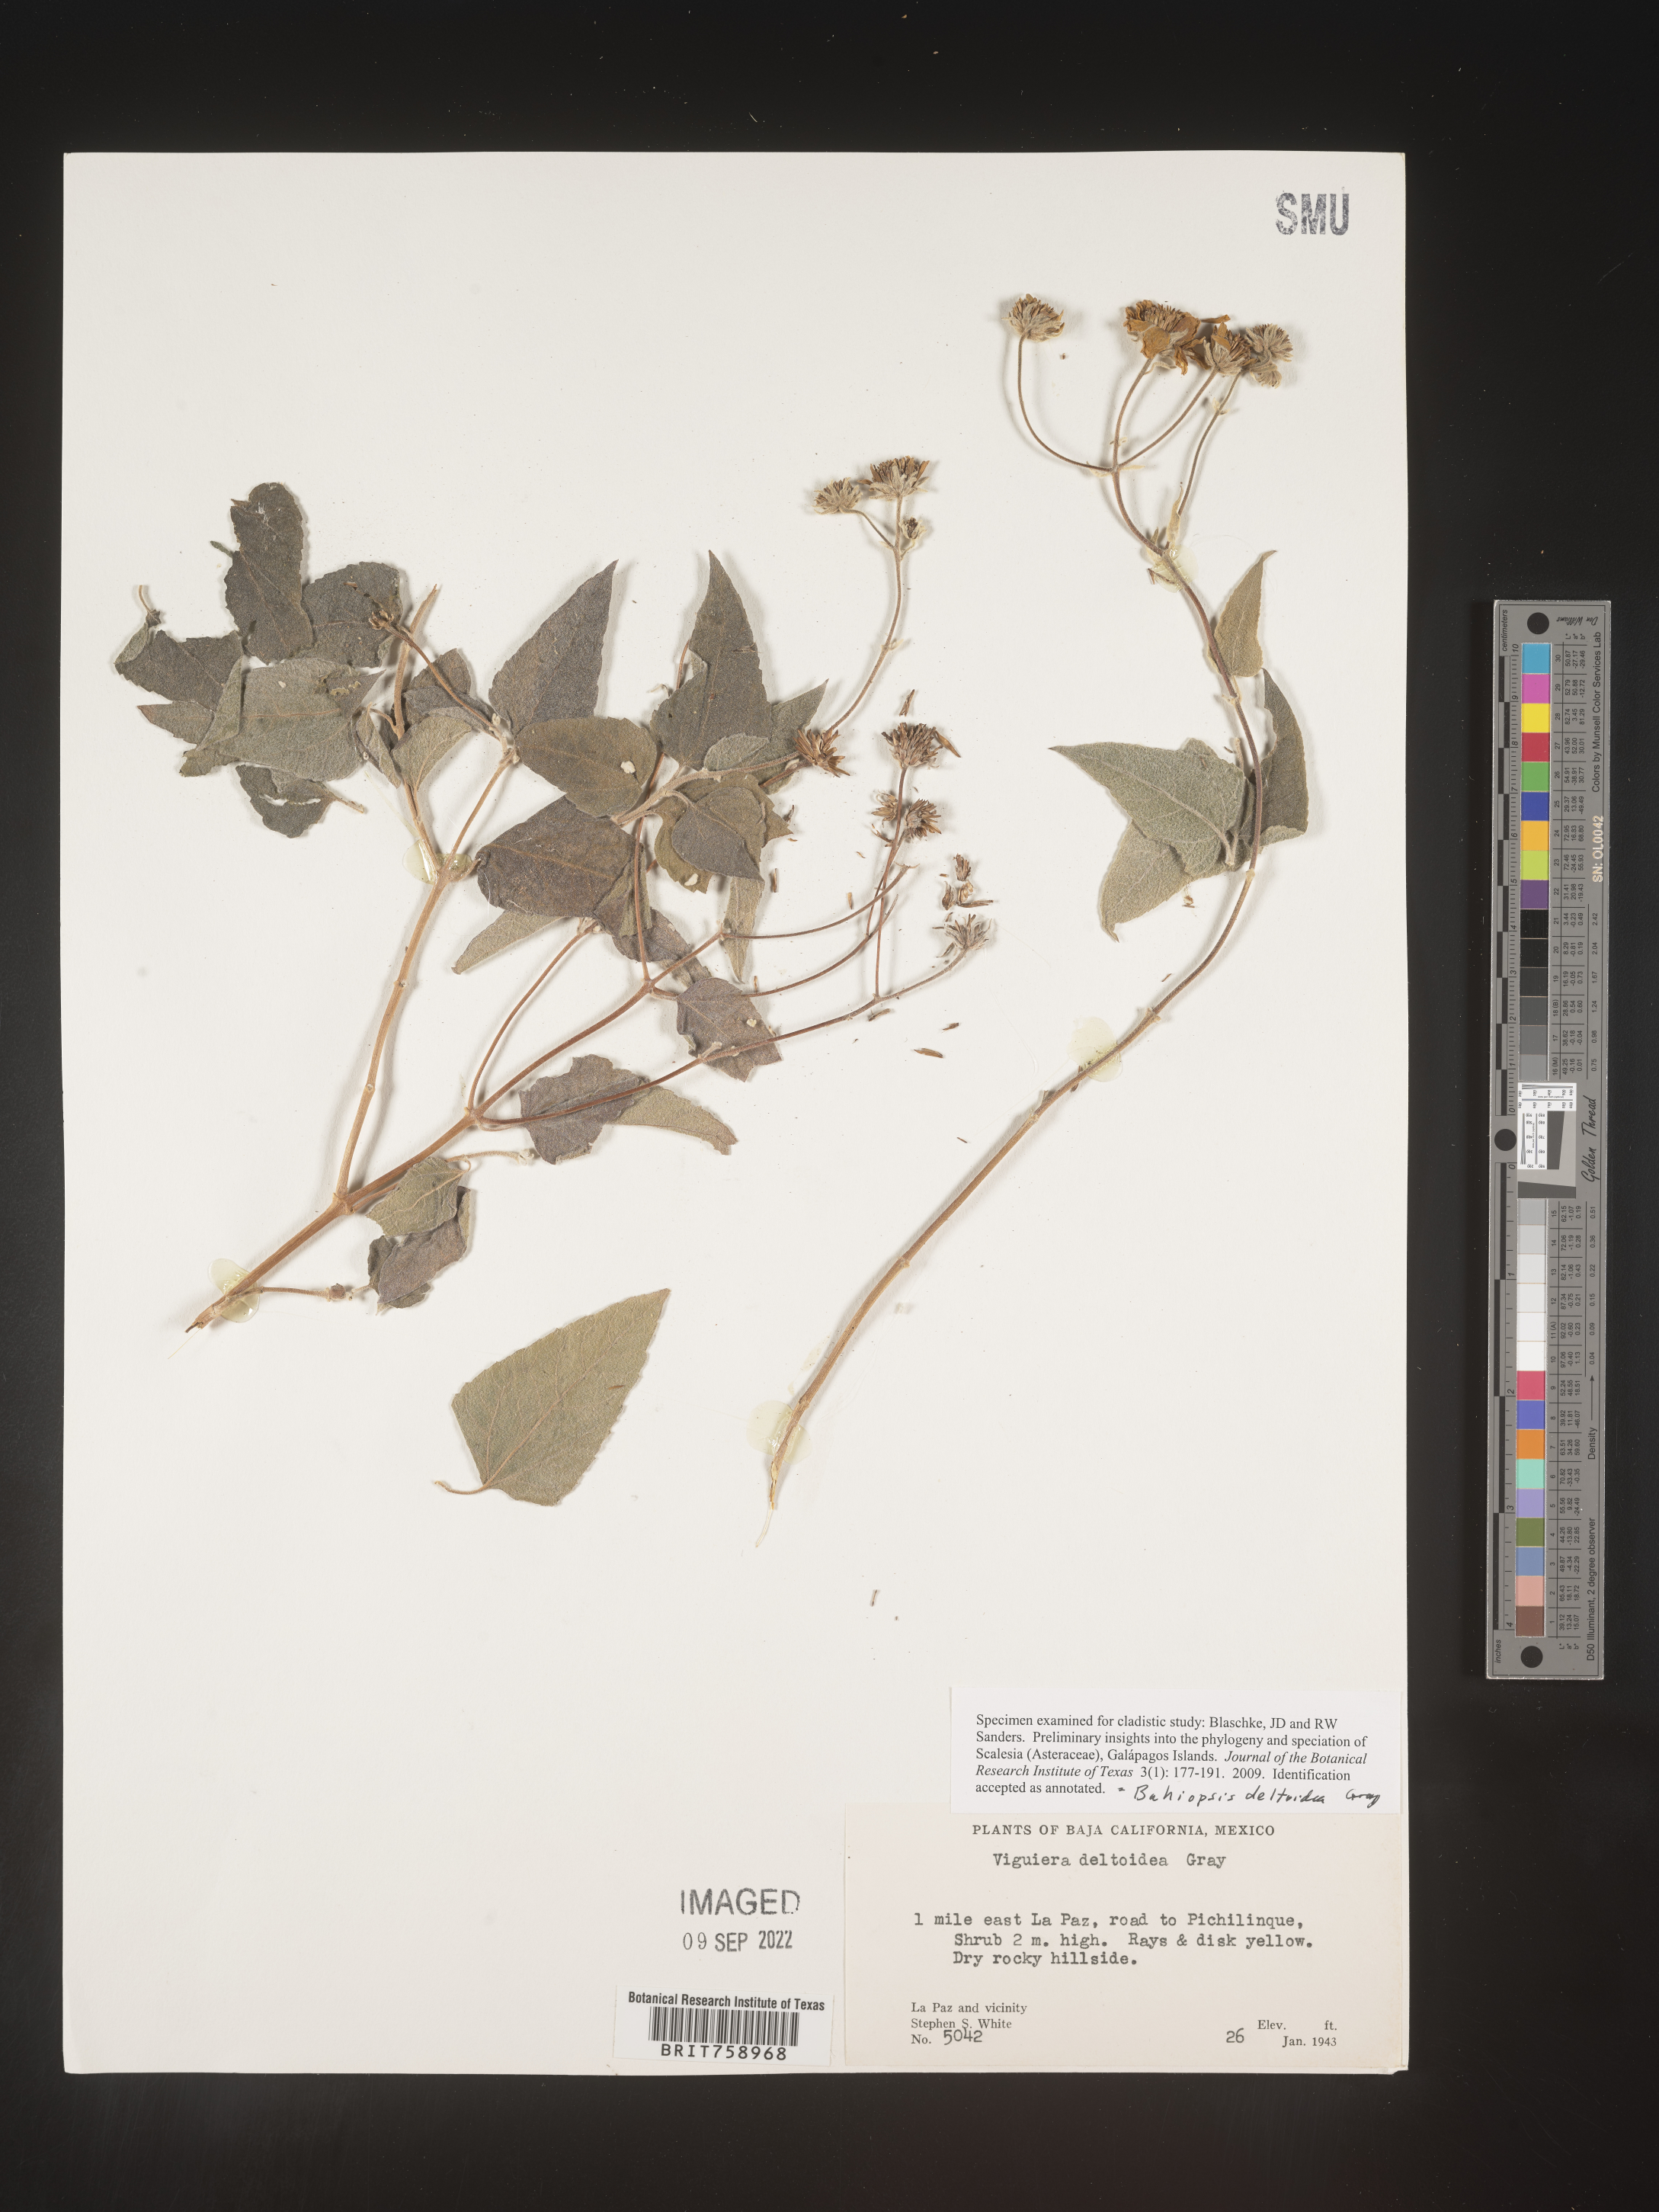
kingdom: Plantae
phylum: Tracheophyta
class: Magnoliopsida
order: Asterales
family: Asteraceae
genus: Viguiera
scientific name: Viguiera
